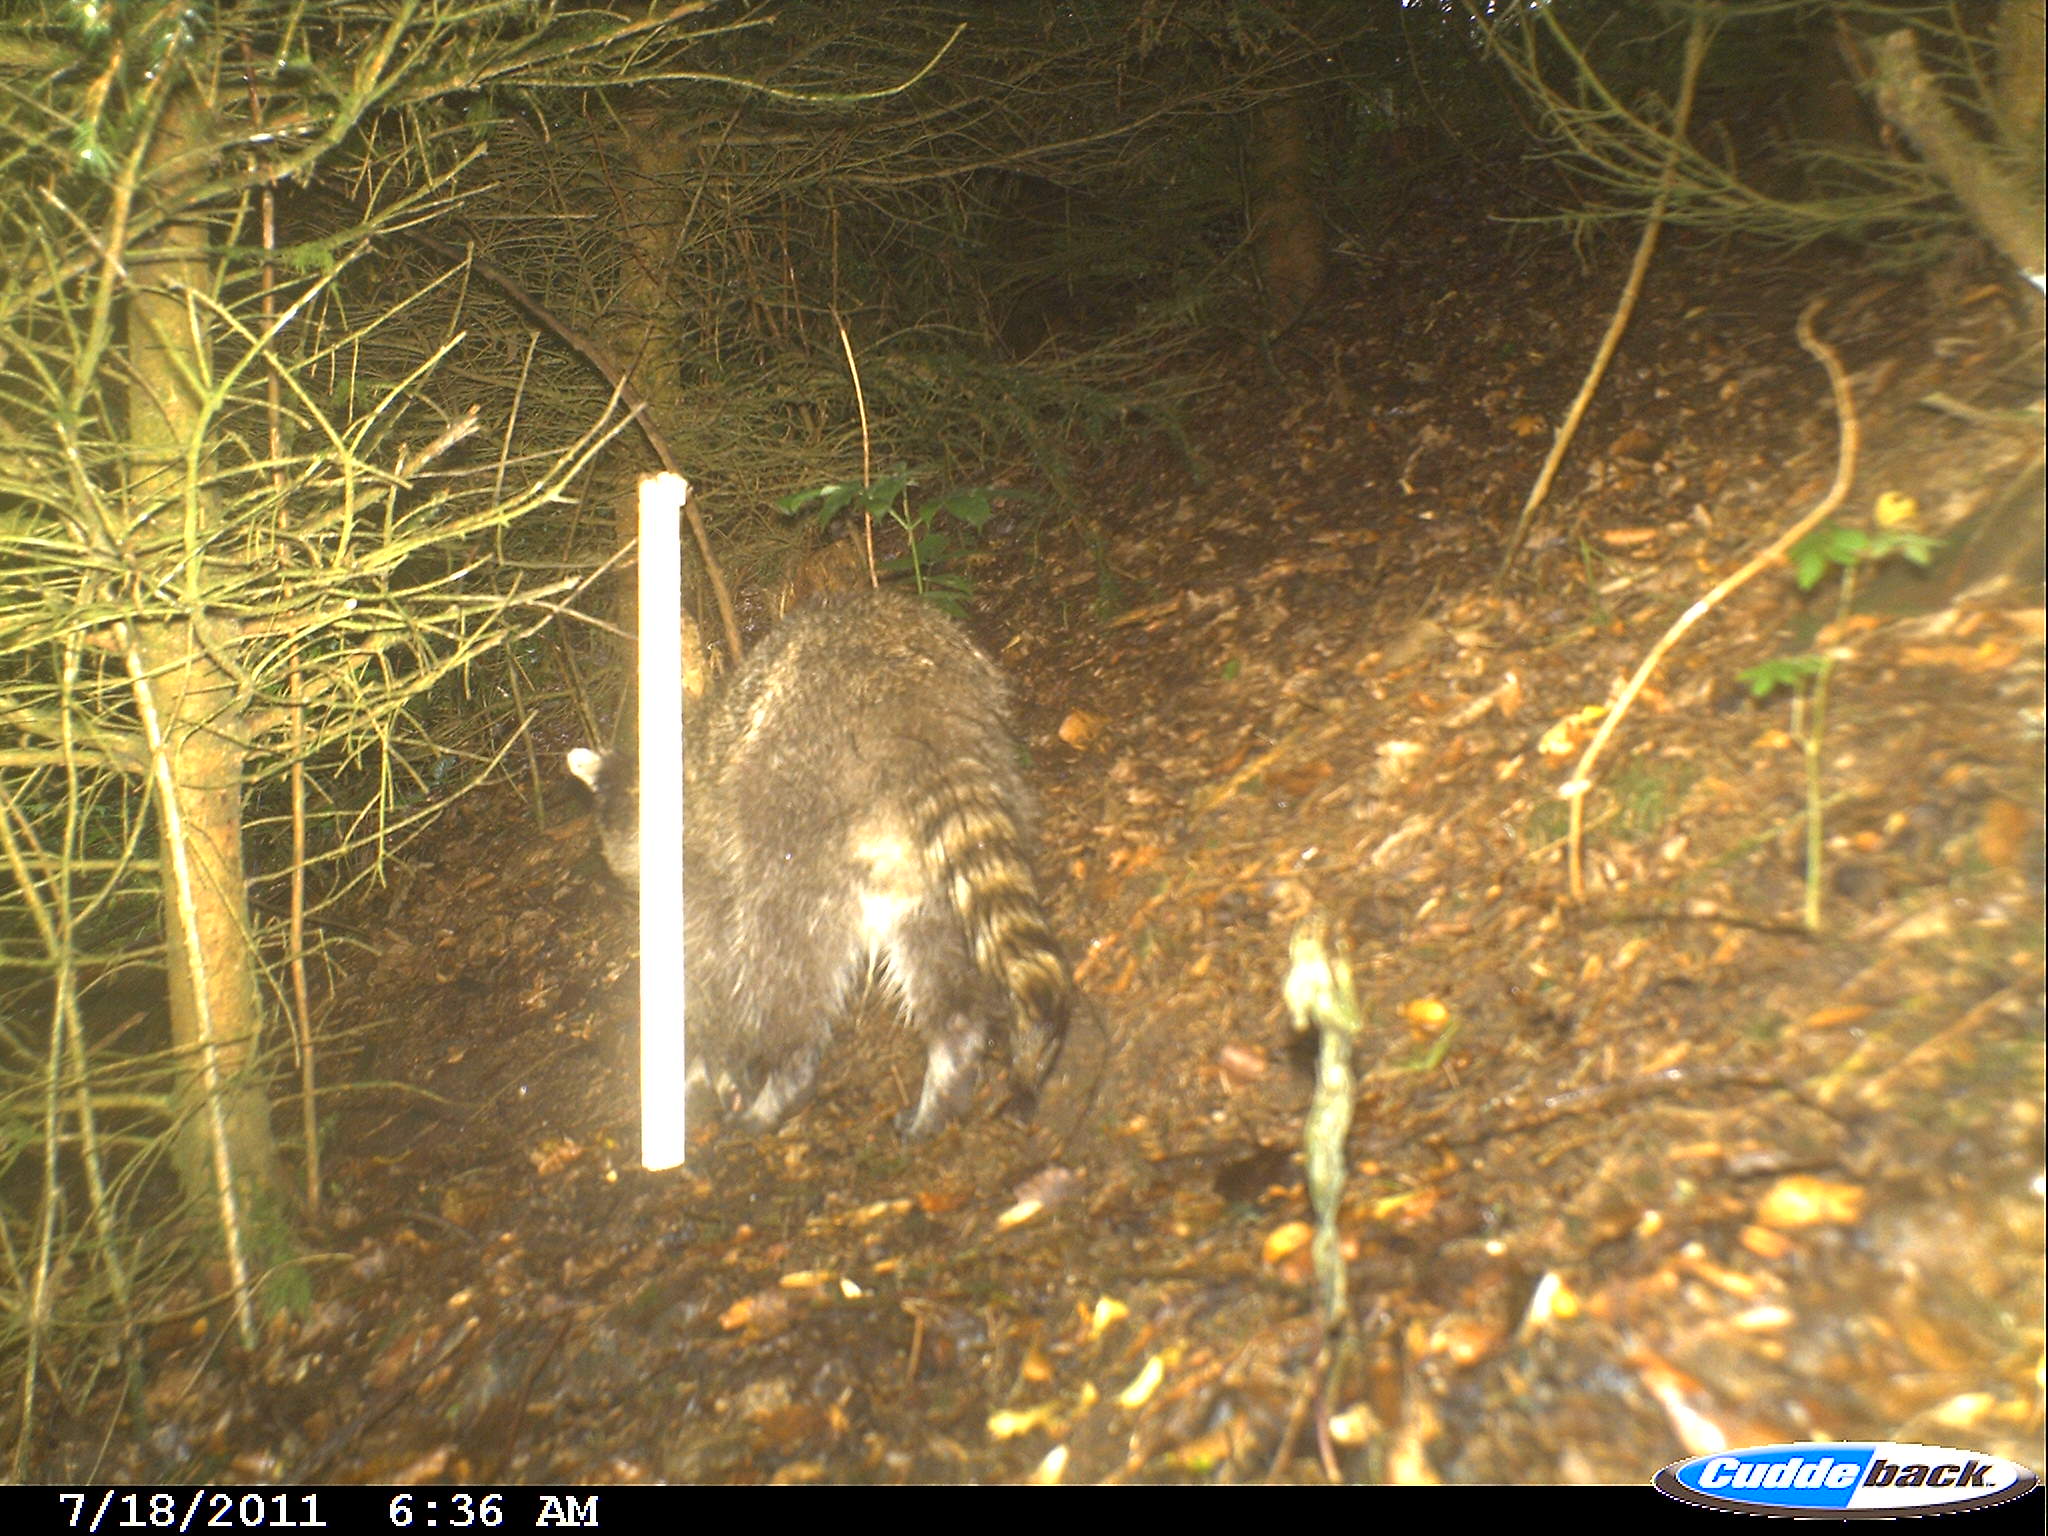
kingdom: Animalia
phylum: Chordata
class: Mammalia
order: Carnivora
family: Procyonidae
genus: Procyon
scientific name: Procyon lotor
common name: Raccoon
